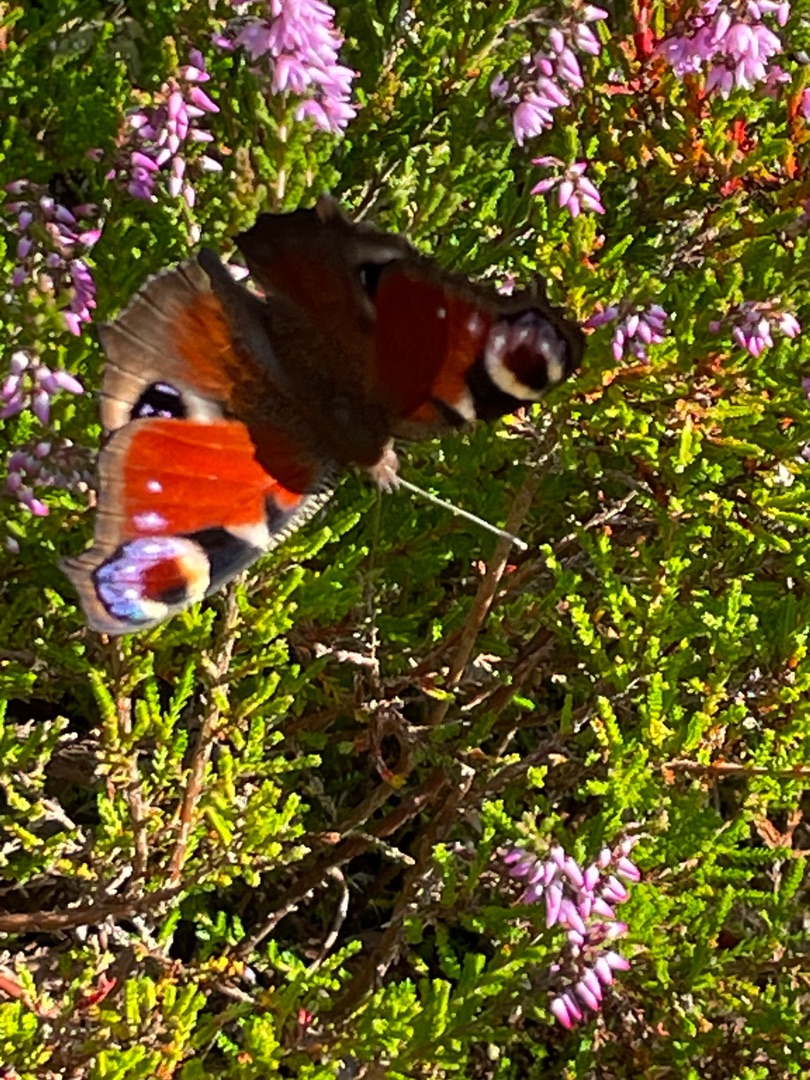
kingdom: Animalia
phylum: Arthropoda
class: Insecta
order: Lepidoptera
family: Nymphalidae
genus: Aglais
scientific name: Aglais io
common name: Dagpåfugleøje
